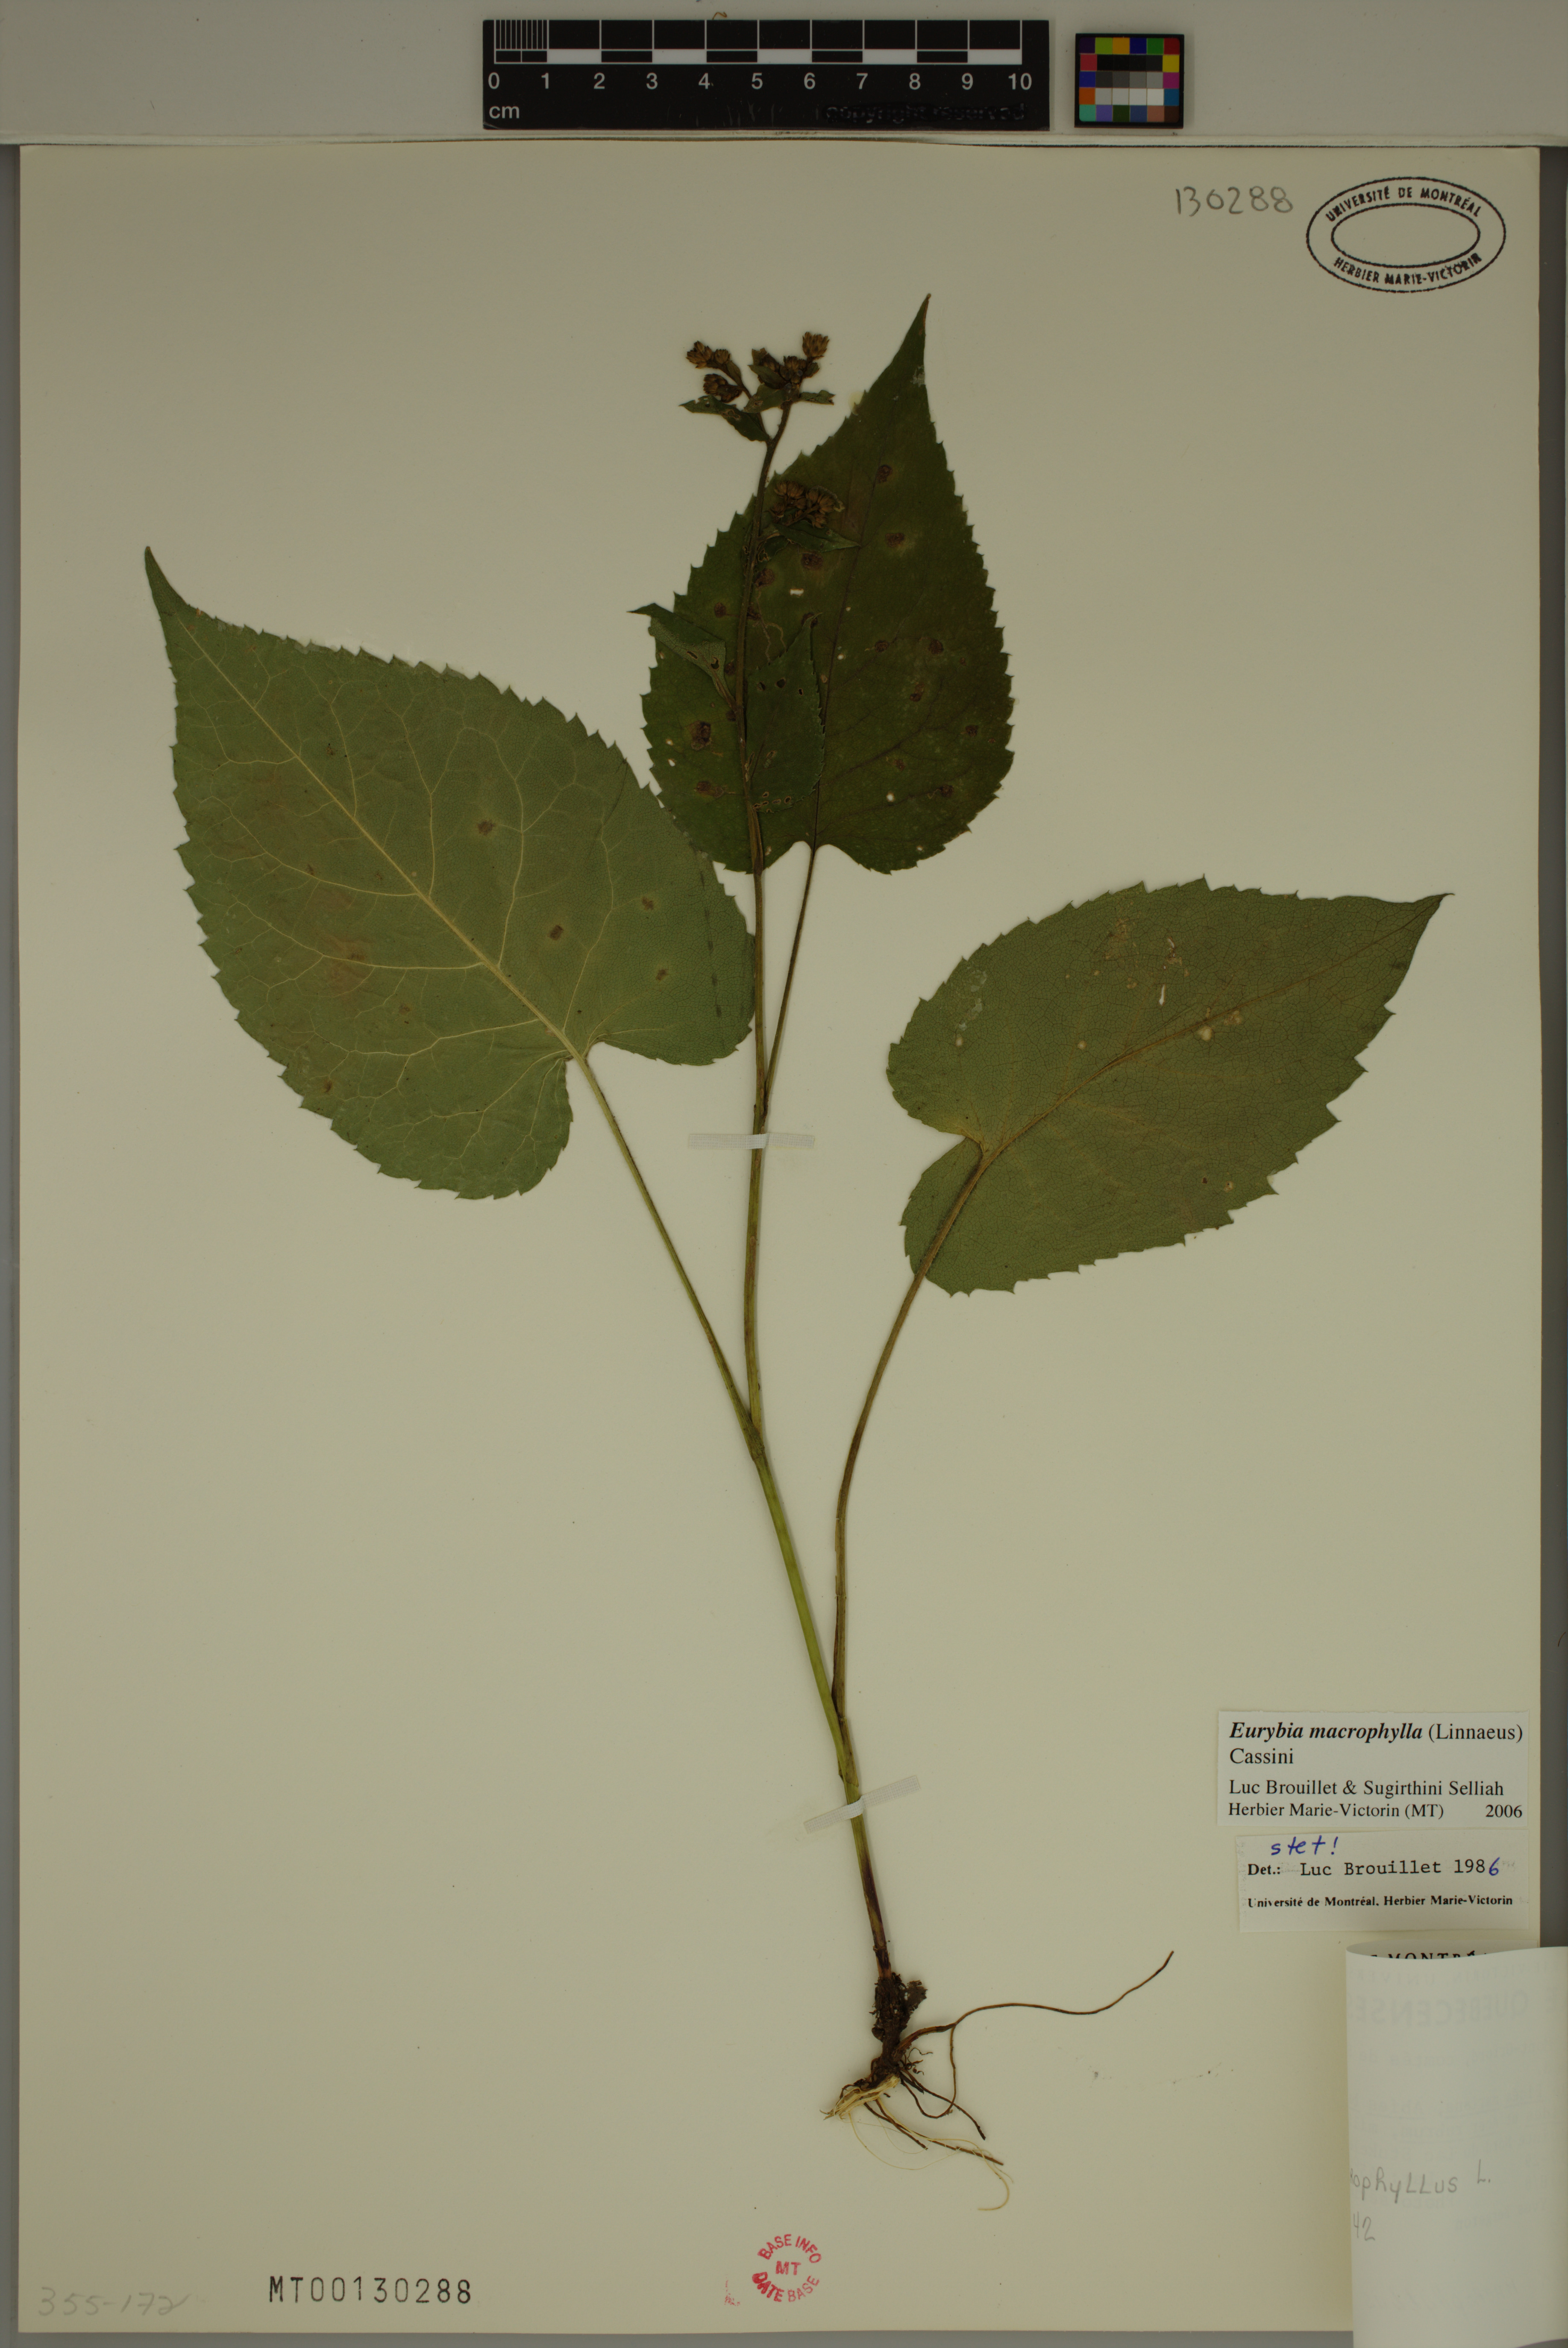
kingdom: Plantae
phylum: Tracheophyta
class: Magnoliopsida
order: Asterales
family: Asteraceae
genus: Eurybia
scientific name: Eurybia macrophylla
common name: Big-leaved aster
